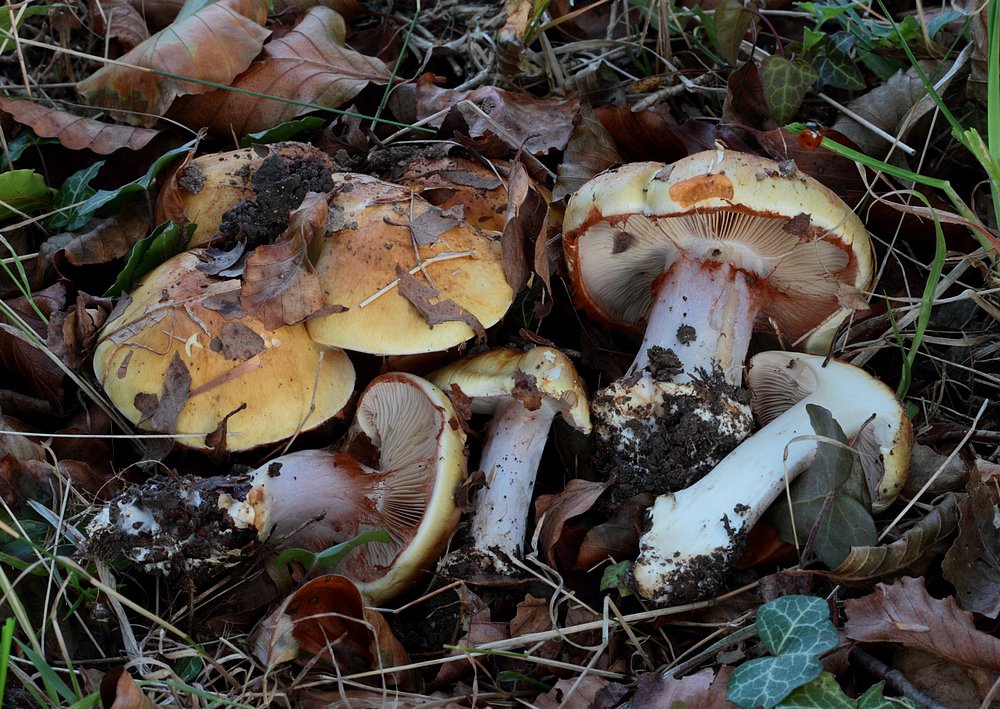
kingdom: Fungi
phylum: Basidiomycota
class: Agaricomycetes
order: Agaricales
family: Cortinariaceae
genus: Phlegmacium
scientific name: Phlegmacium caesiocortinatum
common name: rundsporet slørhat
